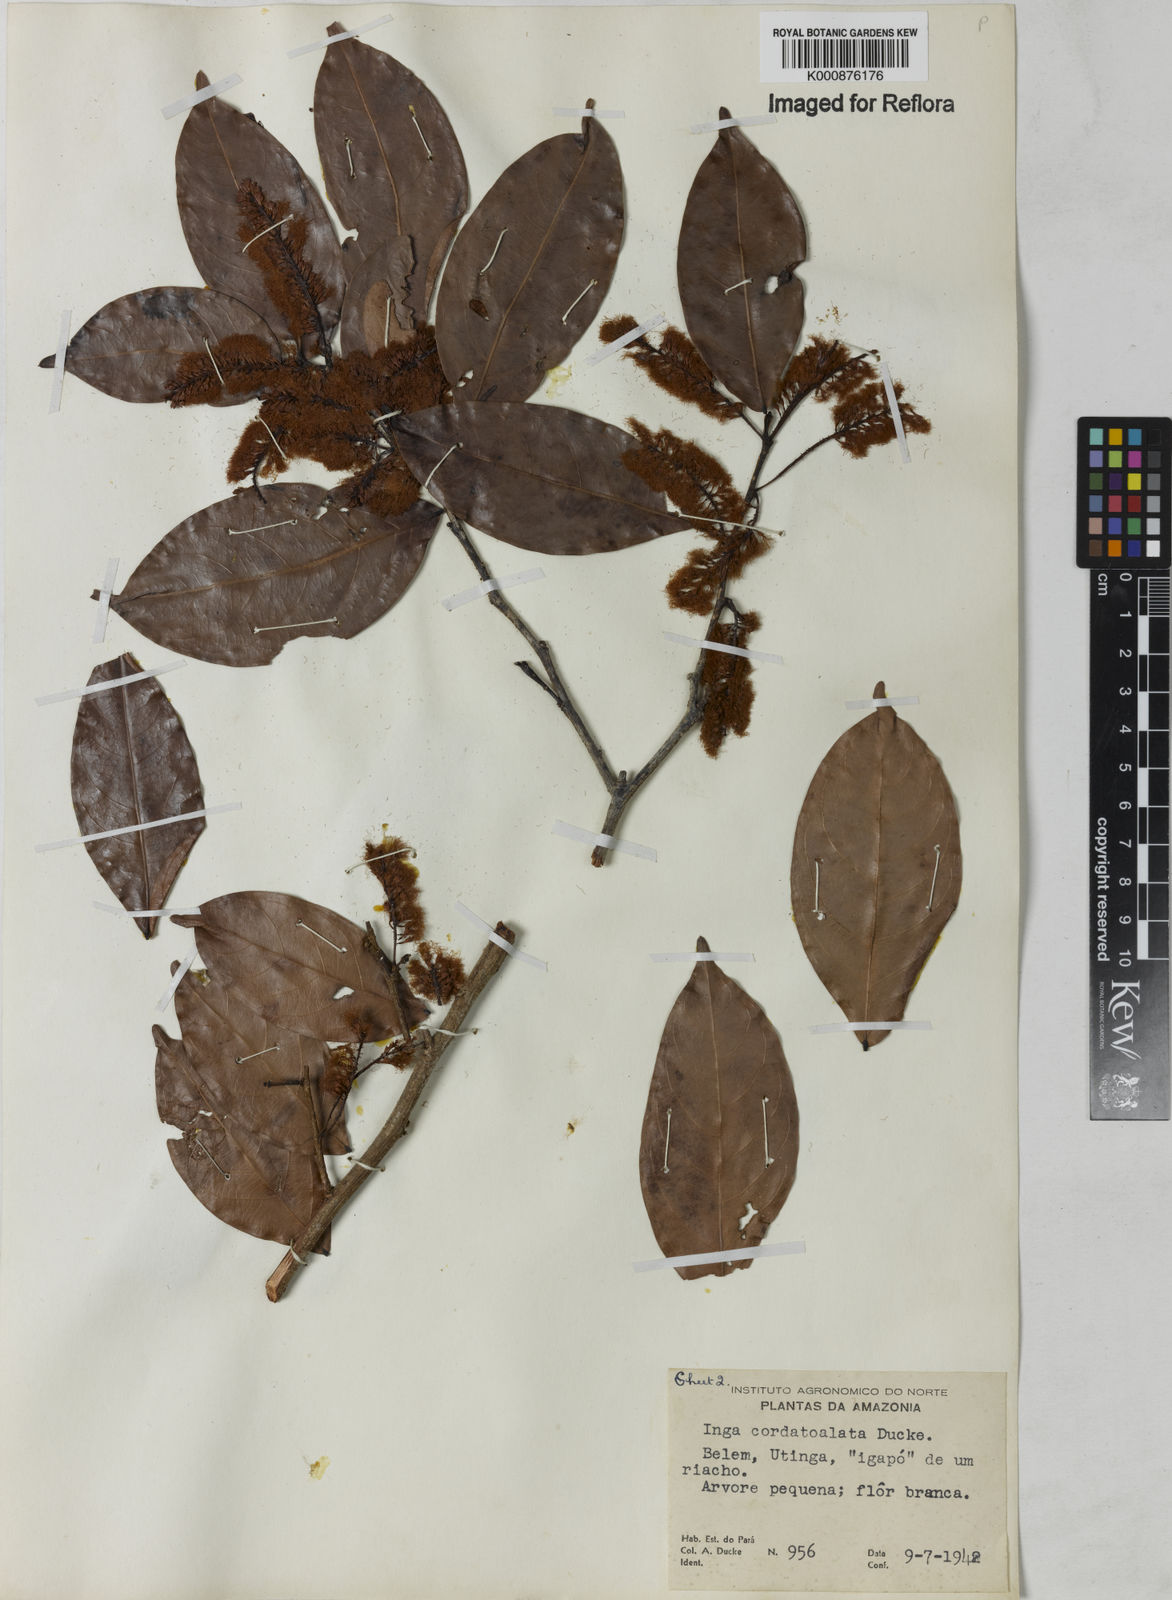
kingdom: Plantae
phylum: Tracheophyta
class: Magnoliopsida
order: Fabales
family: Fabaceae
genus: Inga
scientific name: Inga cordatoalata
